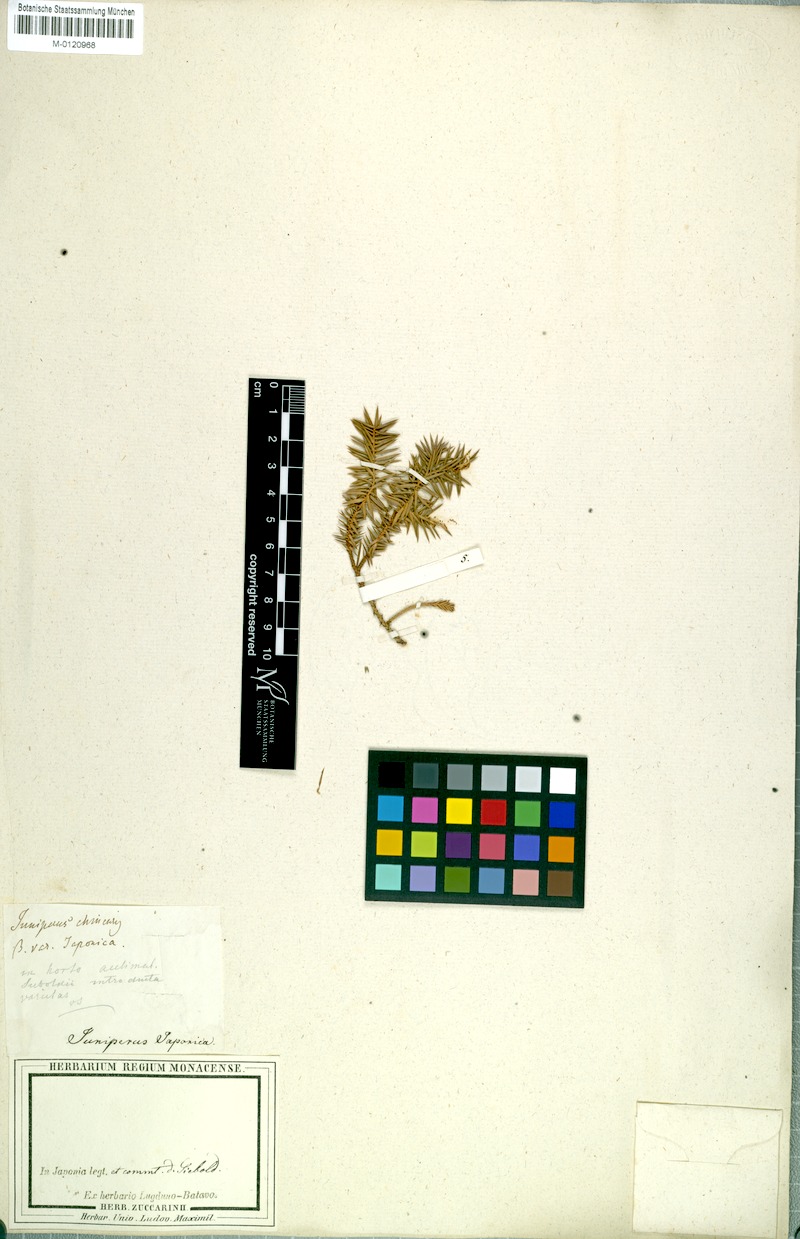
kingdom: Plantae
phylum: Tracheophyta
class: Pinopsida
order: Pinales
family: Cupressaceae
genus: Juniperus
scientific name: Juniperus chinensis
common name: Chinese juniper
